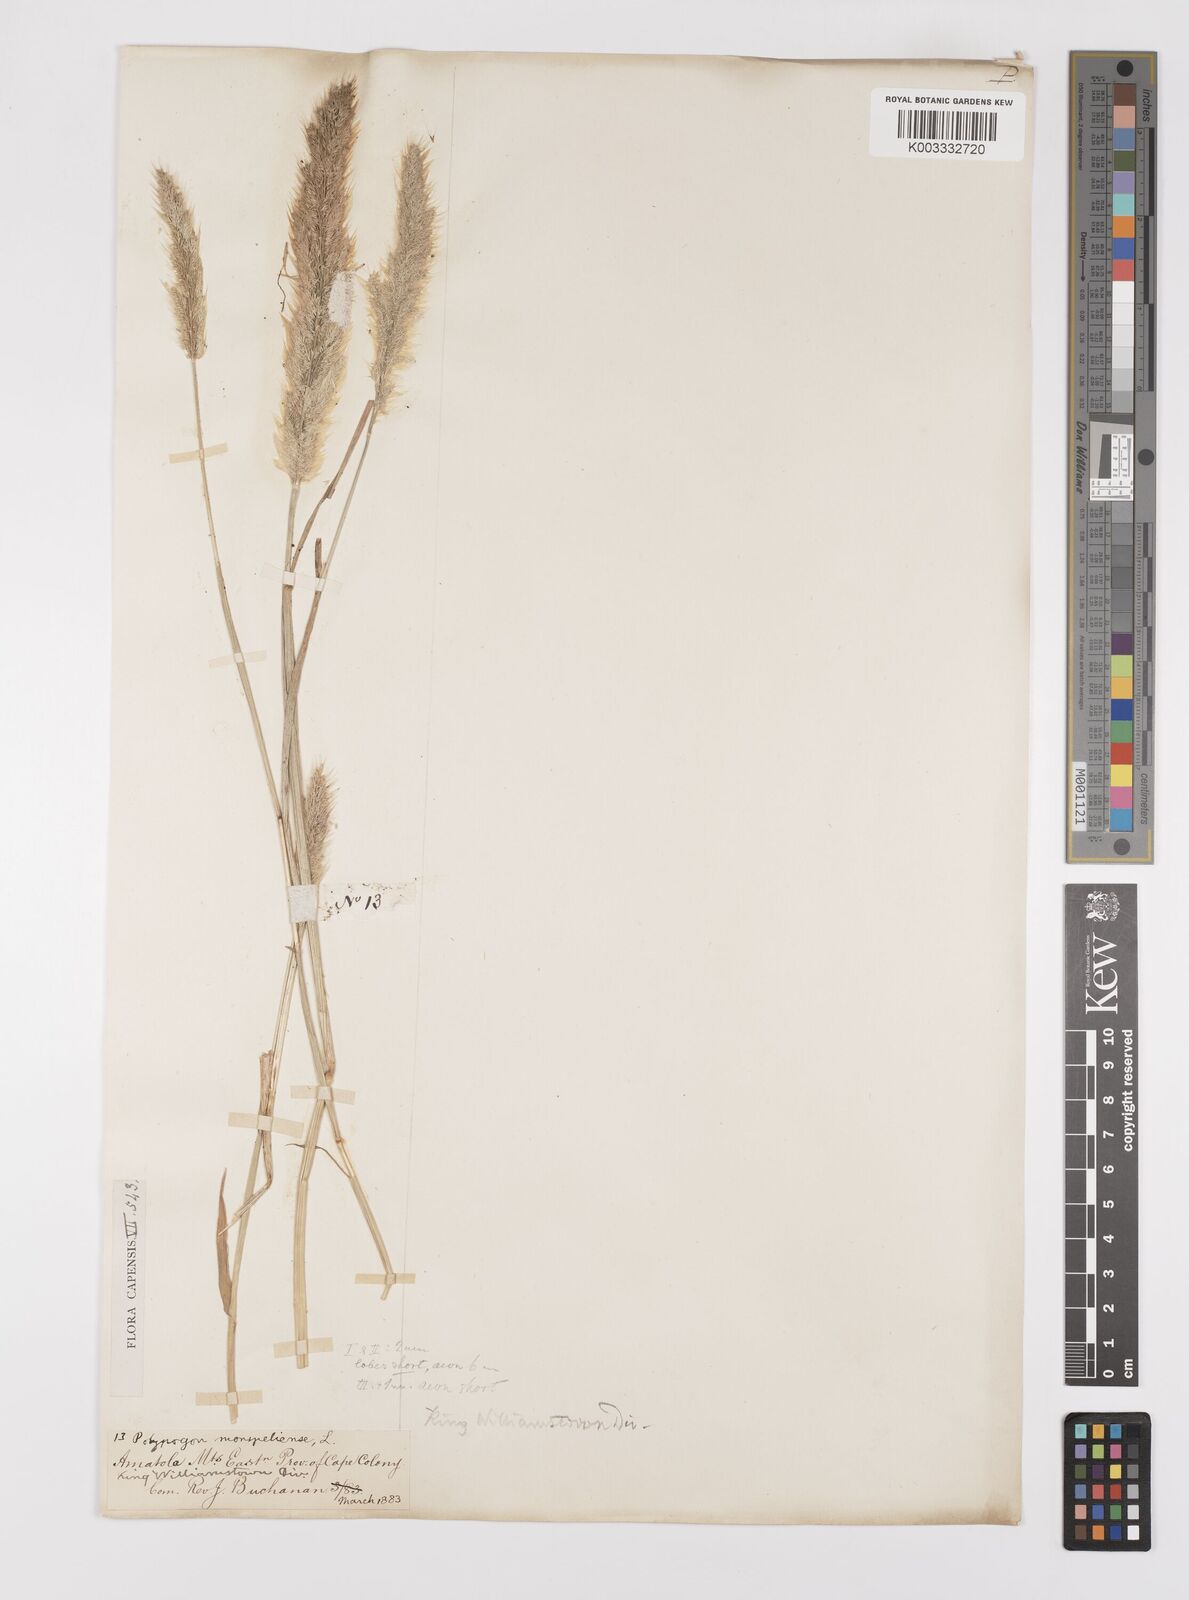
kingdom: Plantae
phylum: Tracheophyta
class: Liliopsida
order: Poales
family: Poaceae
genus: Polypogon
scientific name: Polypogon monspeliensis
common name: Annual rabbitsfoot grass
